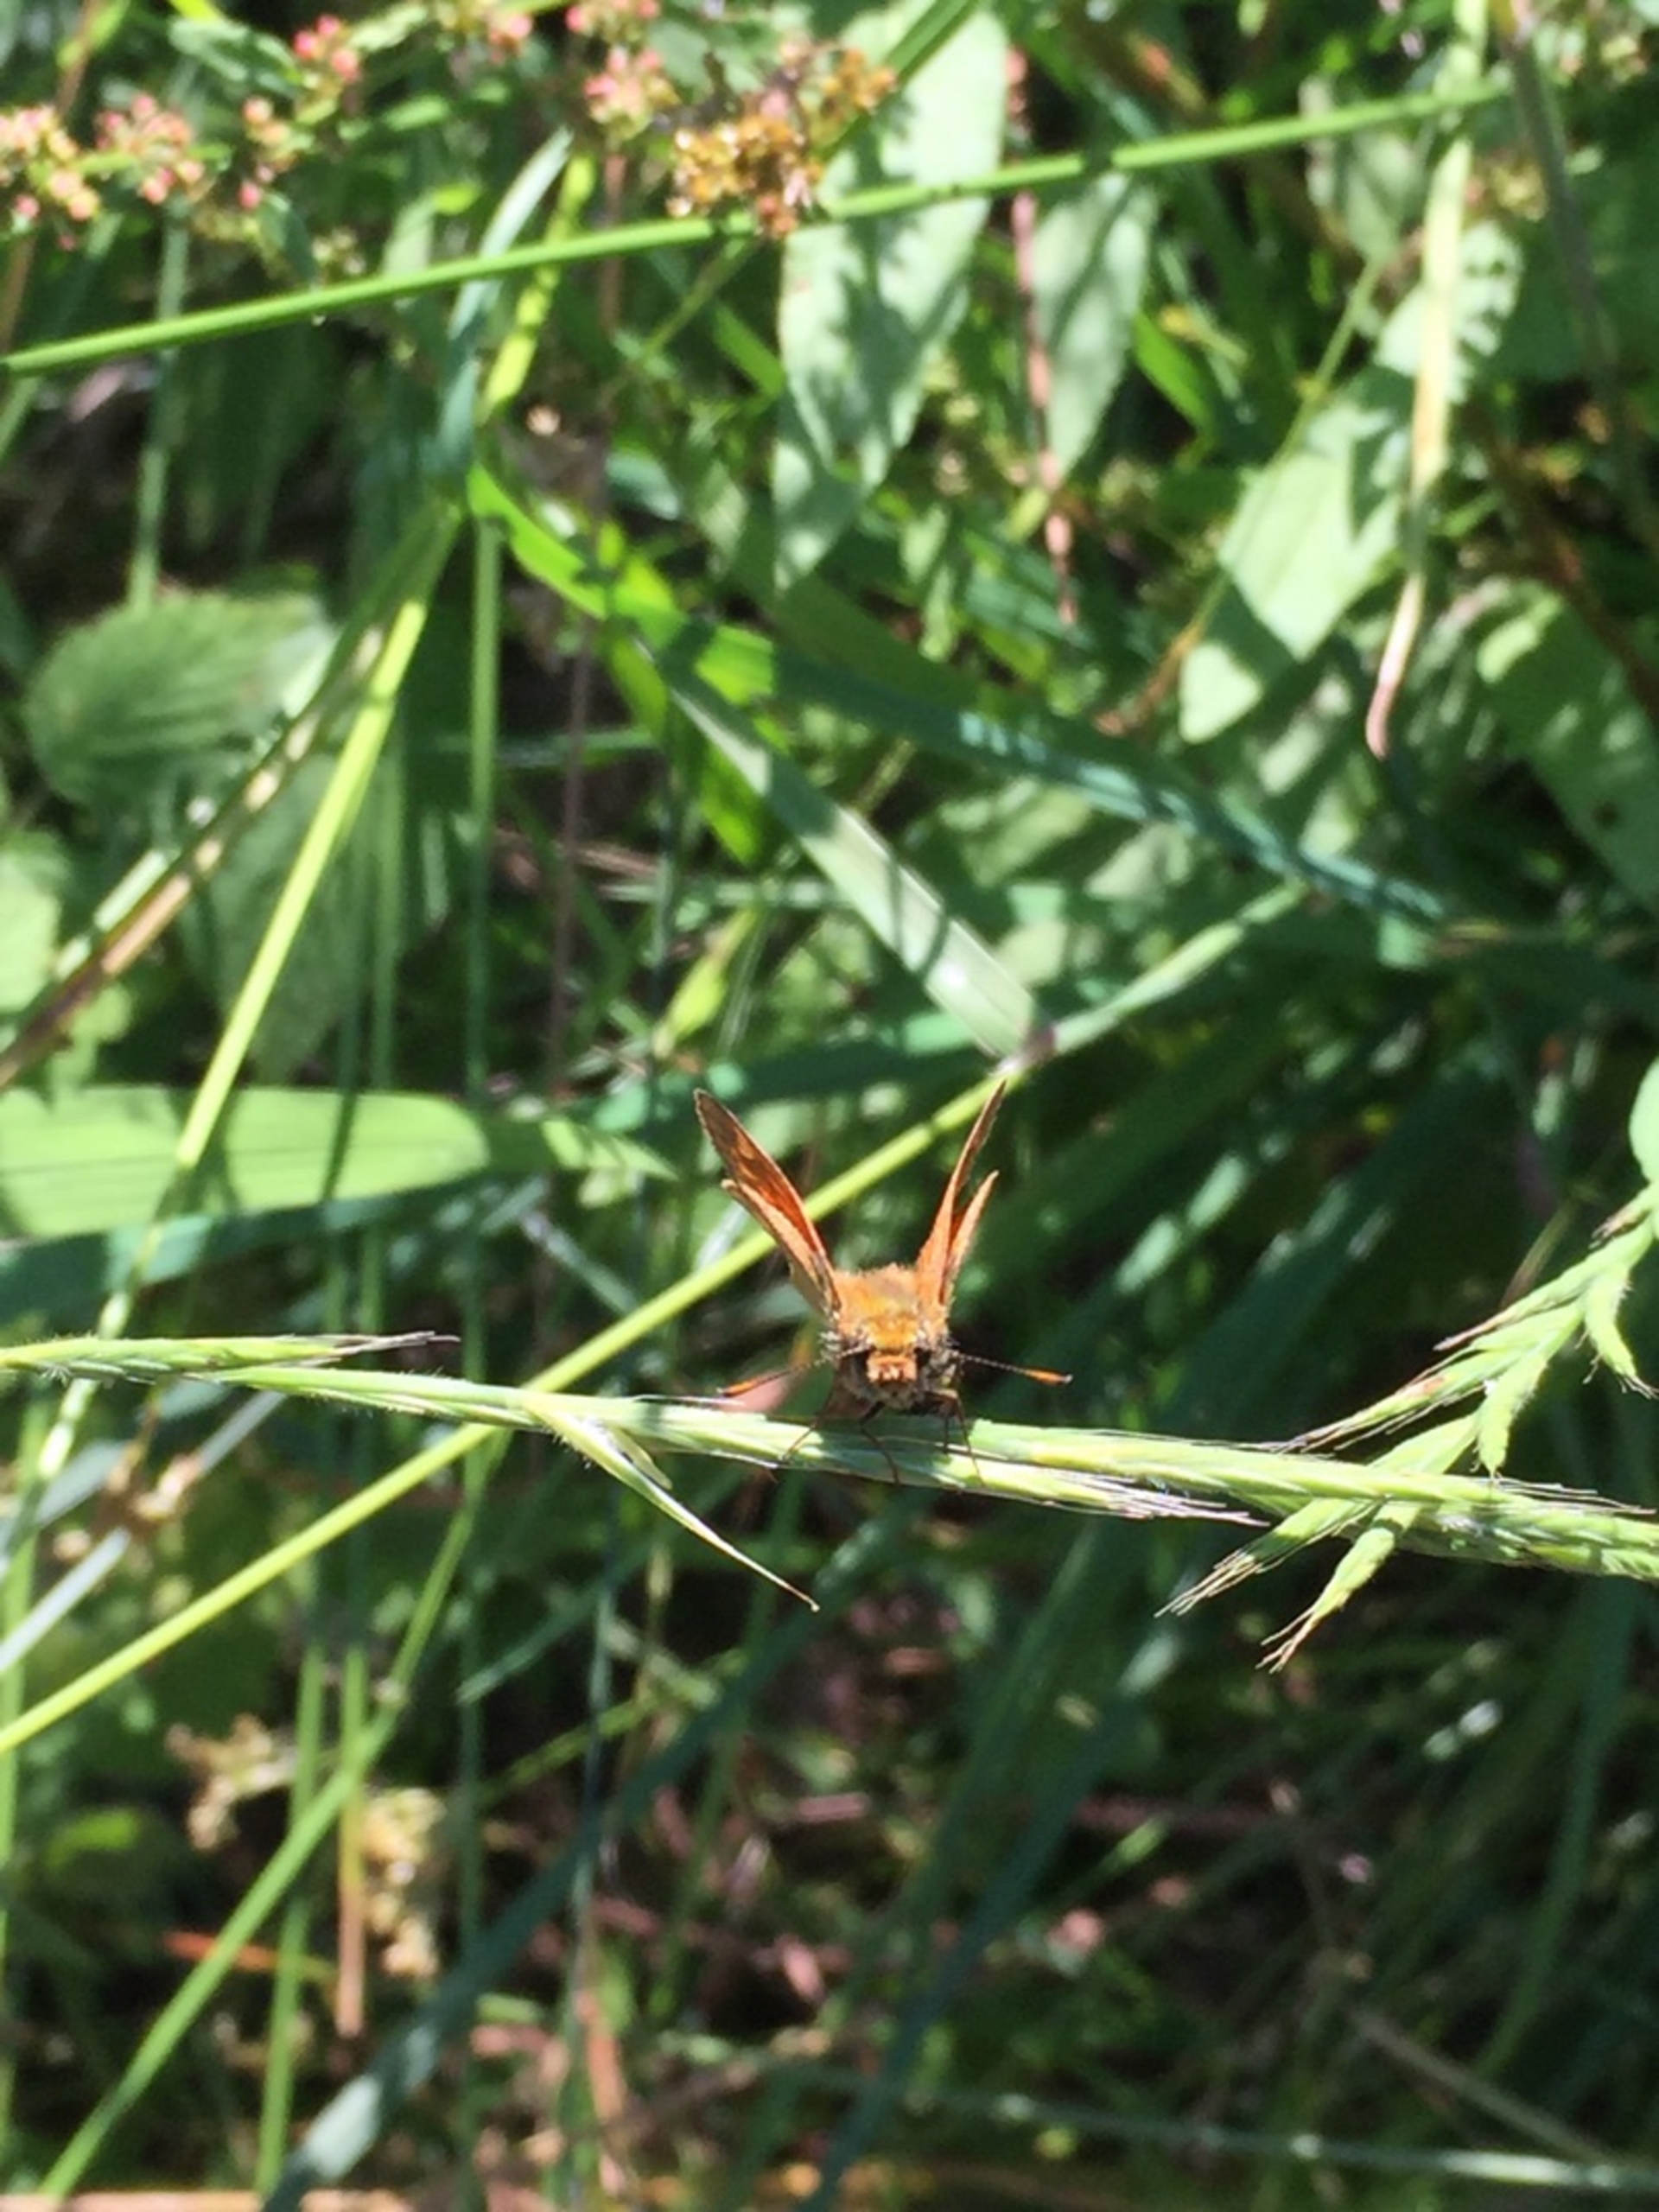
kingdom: Animalia
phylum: Arthropoda
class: Insecta
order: Lepidoptera
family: Hesperiidae
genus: Ochlodes
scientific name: Ochlodes venata
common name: Stor bredpande
